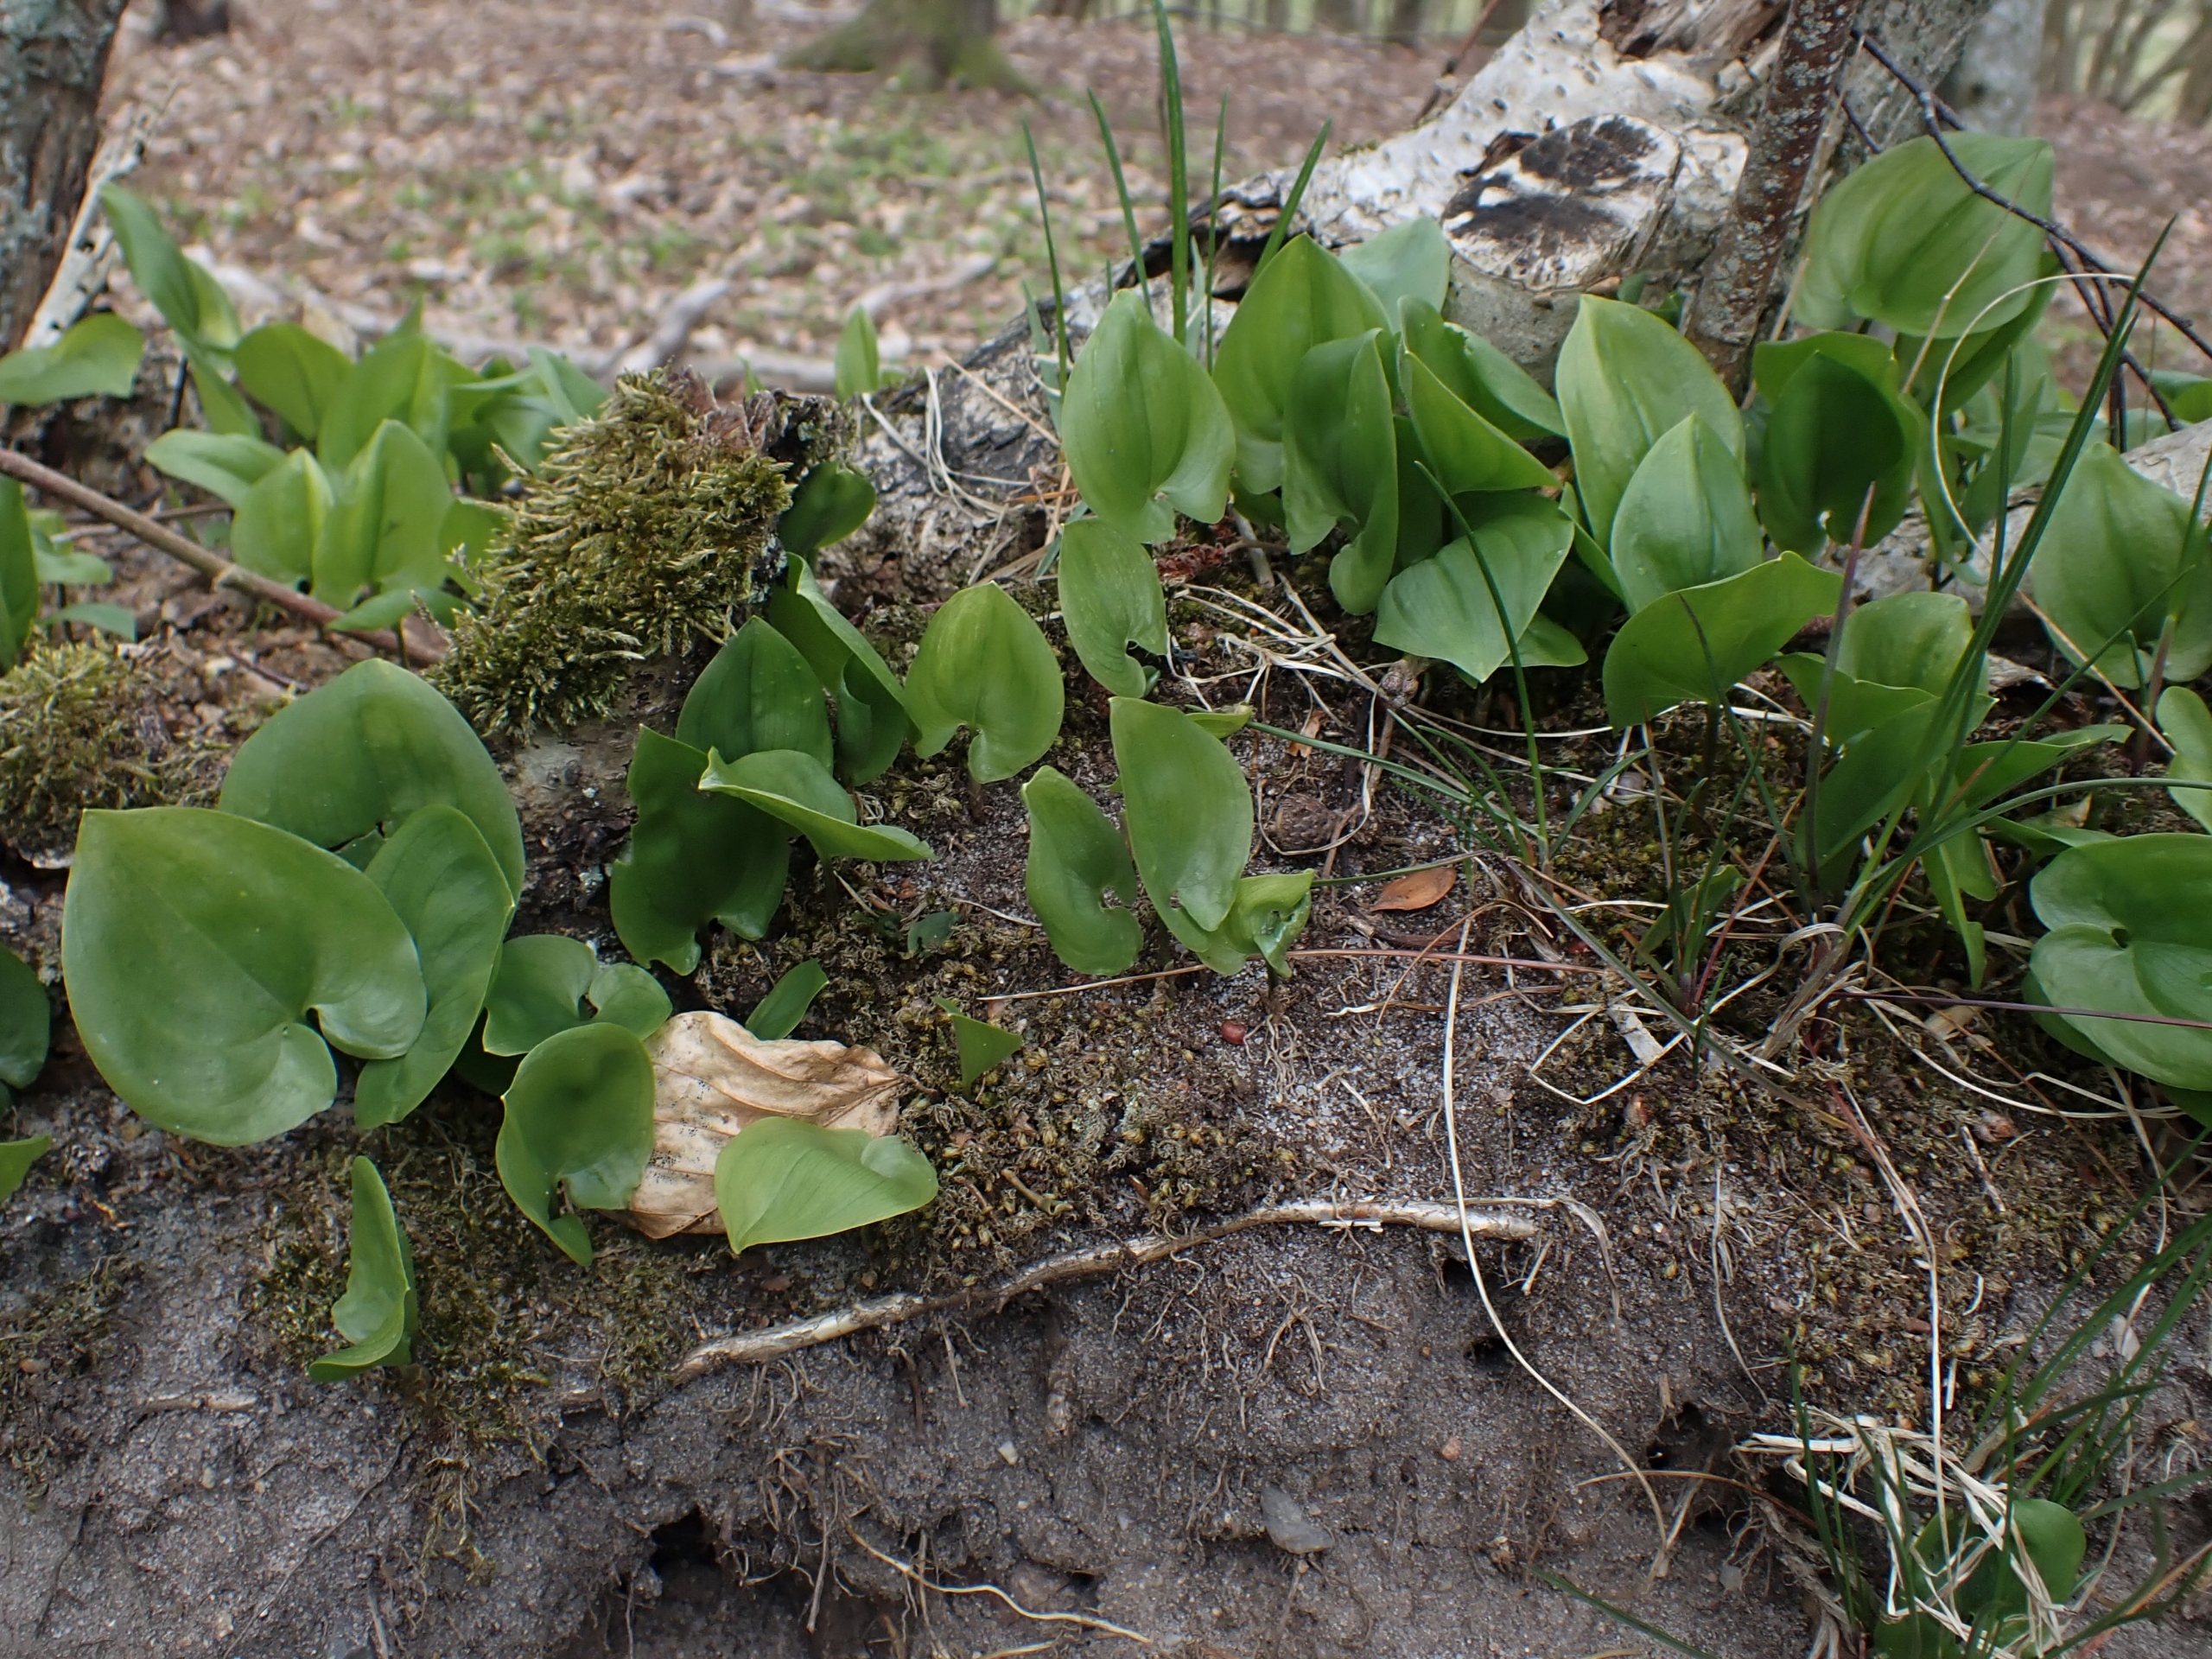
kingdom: Plantae
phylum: Tracheophyta
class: Liliopsida
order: Asparagales
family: Asparagaceae
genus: Maianthemum
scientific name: Maianthemum bifolium
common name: Majblomst
